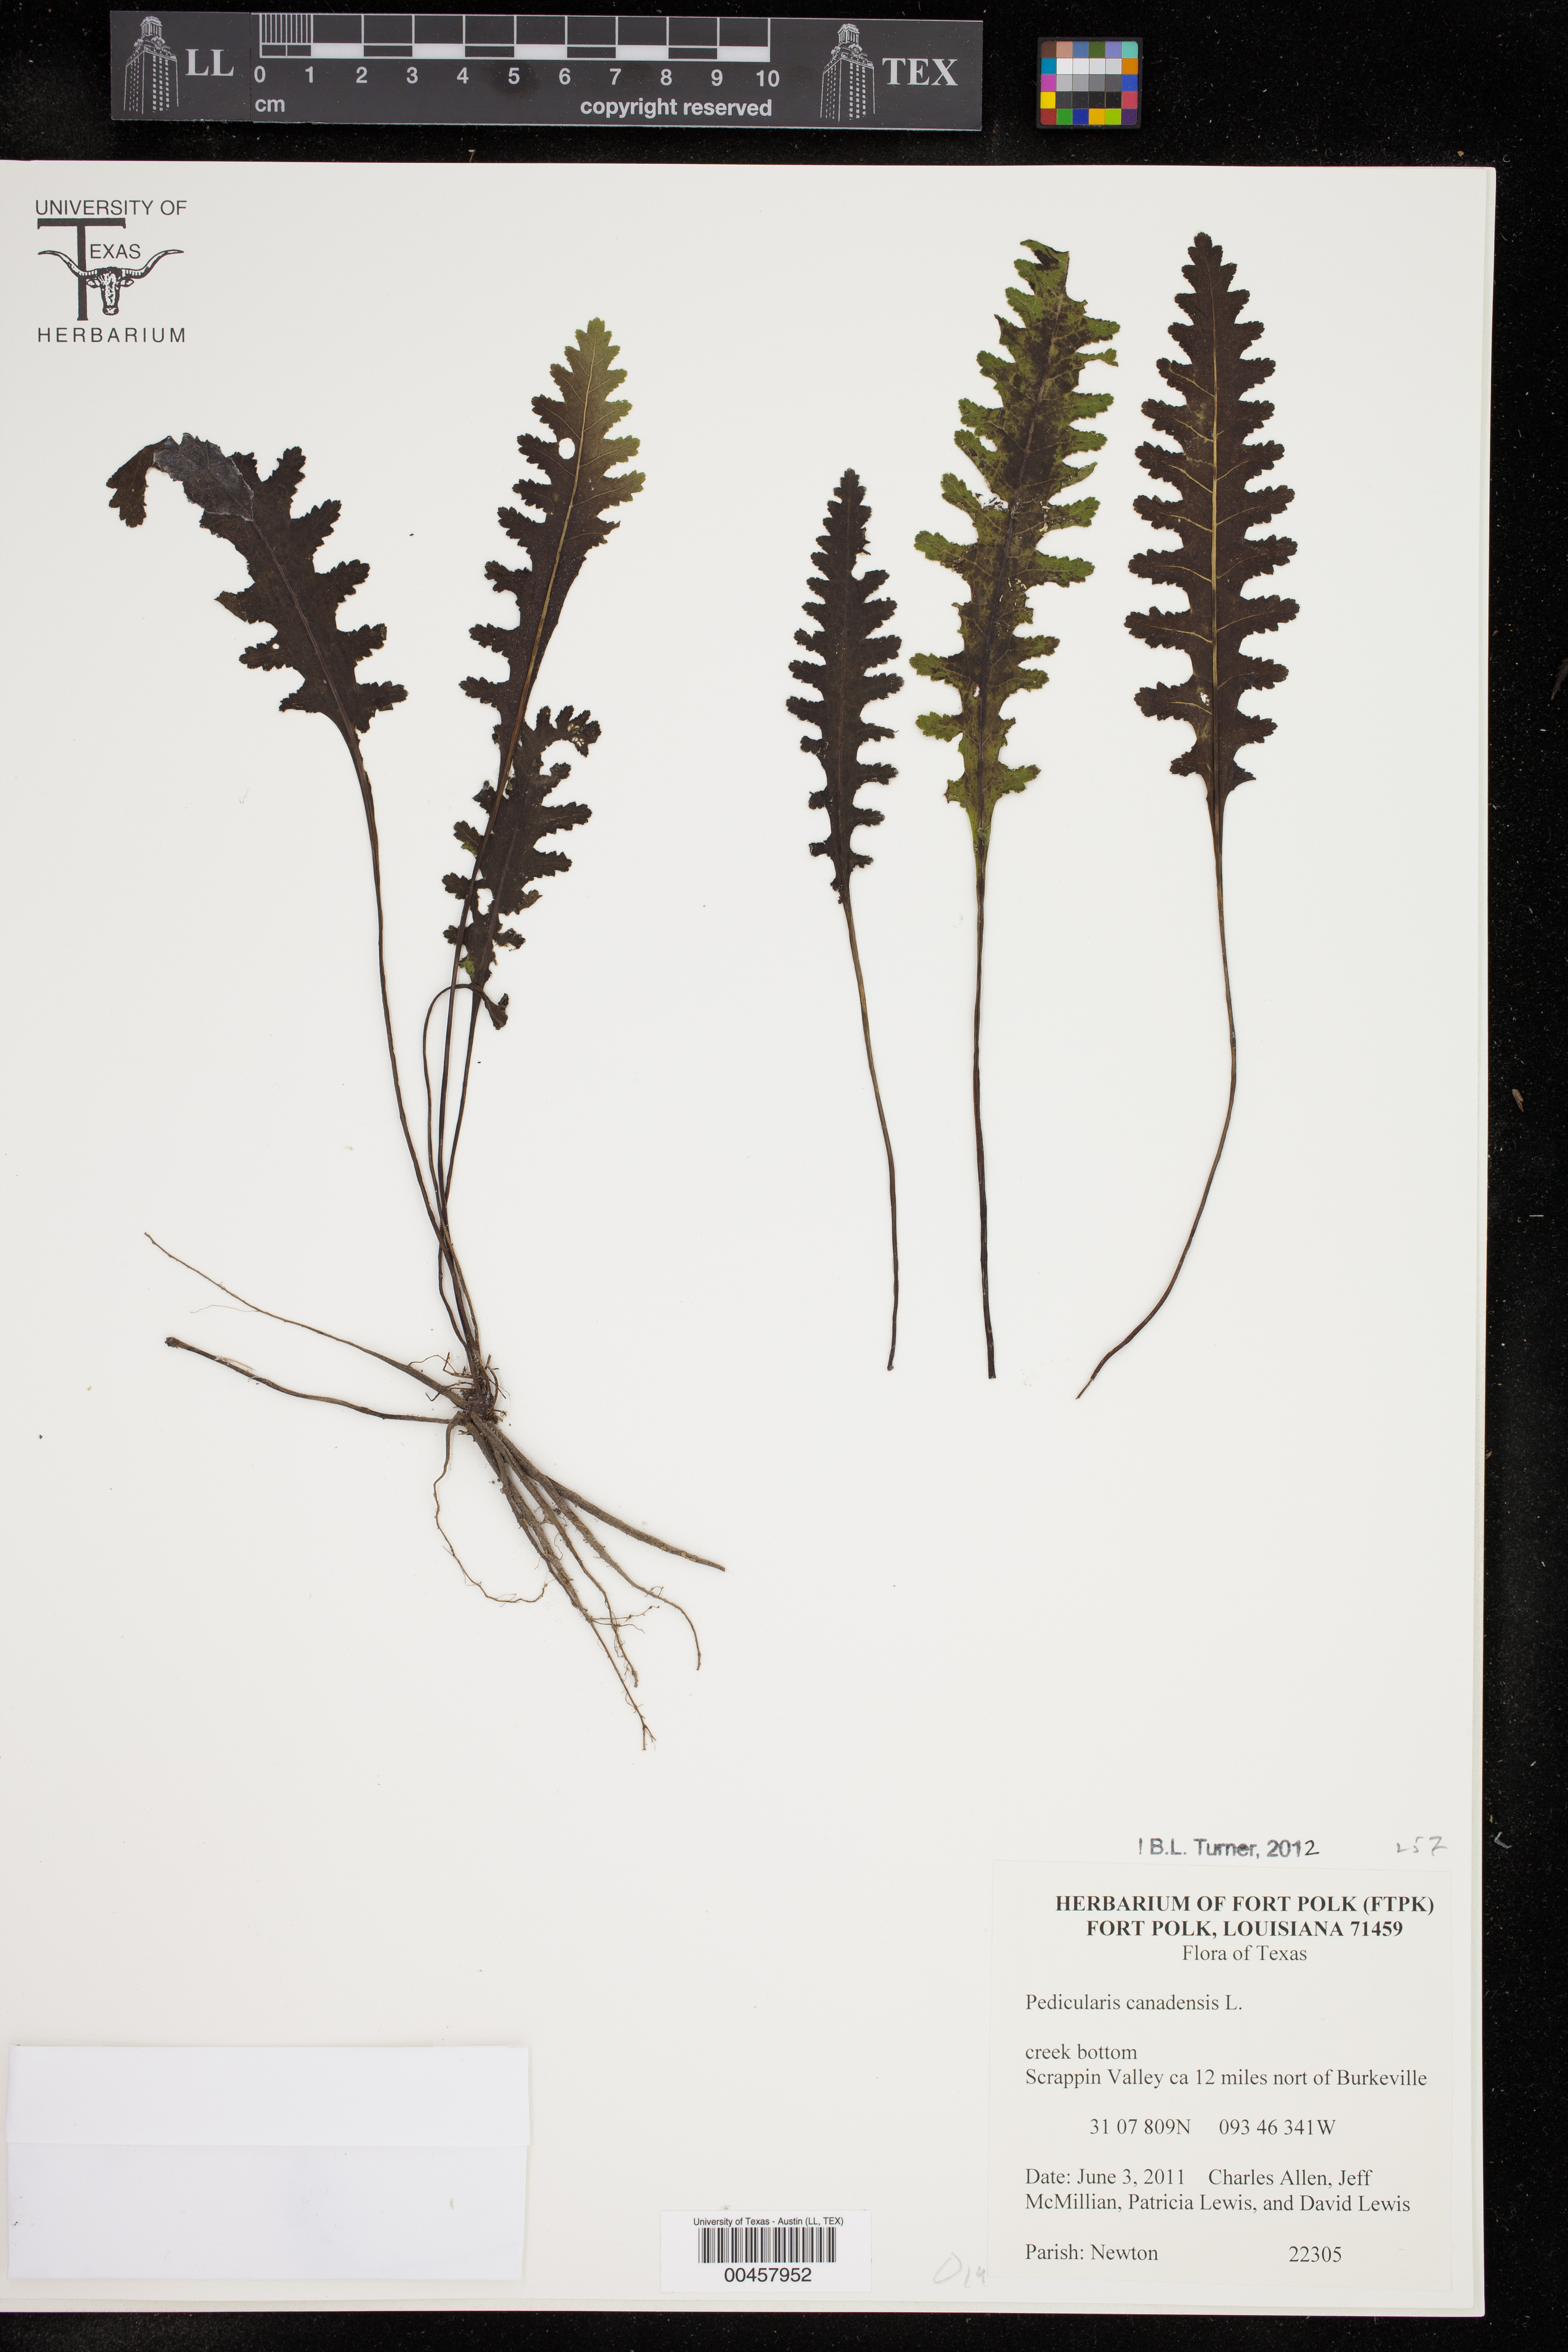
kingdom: Plantae
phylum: Tracheophyta
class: Magnoliopsida
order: Lamiales
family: Orobanchaceae
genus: Pedicularis
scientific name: Pedicularis canadensis
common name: Early lousewort
